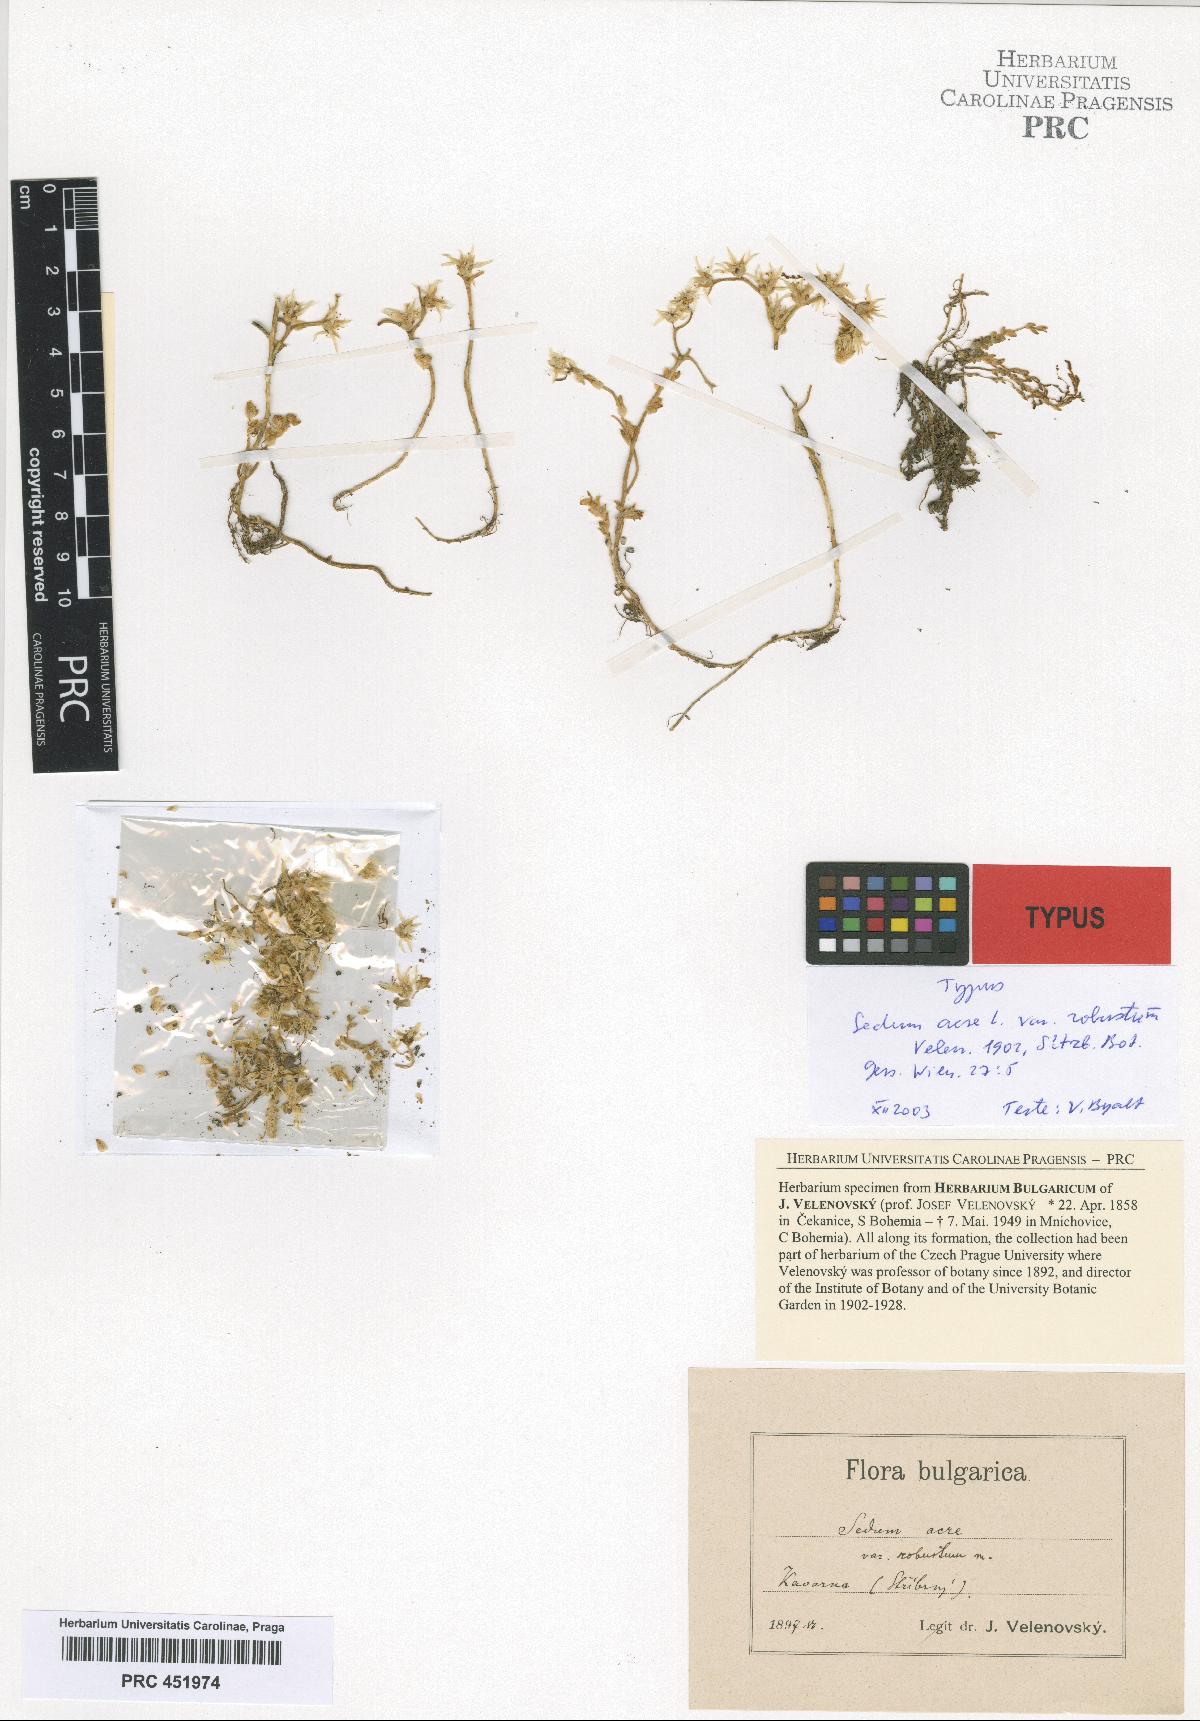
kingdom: Plantae
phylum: Tracheophyta
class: Magnoliopsida
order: Saxifragales
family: Crassulaceae
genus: Sedum
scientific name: Sedum acre
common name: Biting stonecrop
